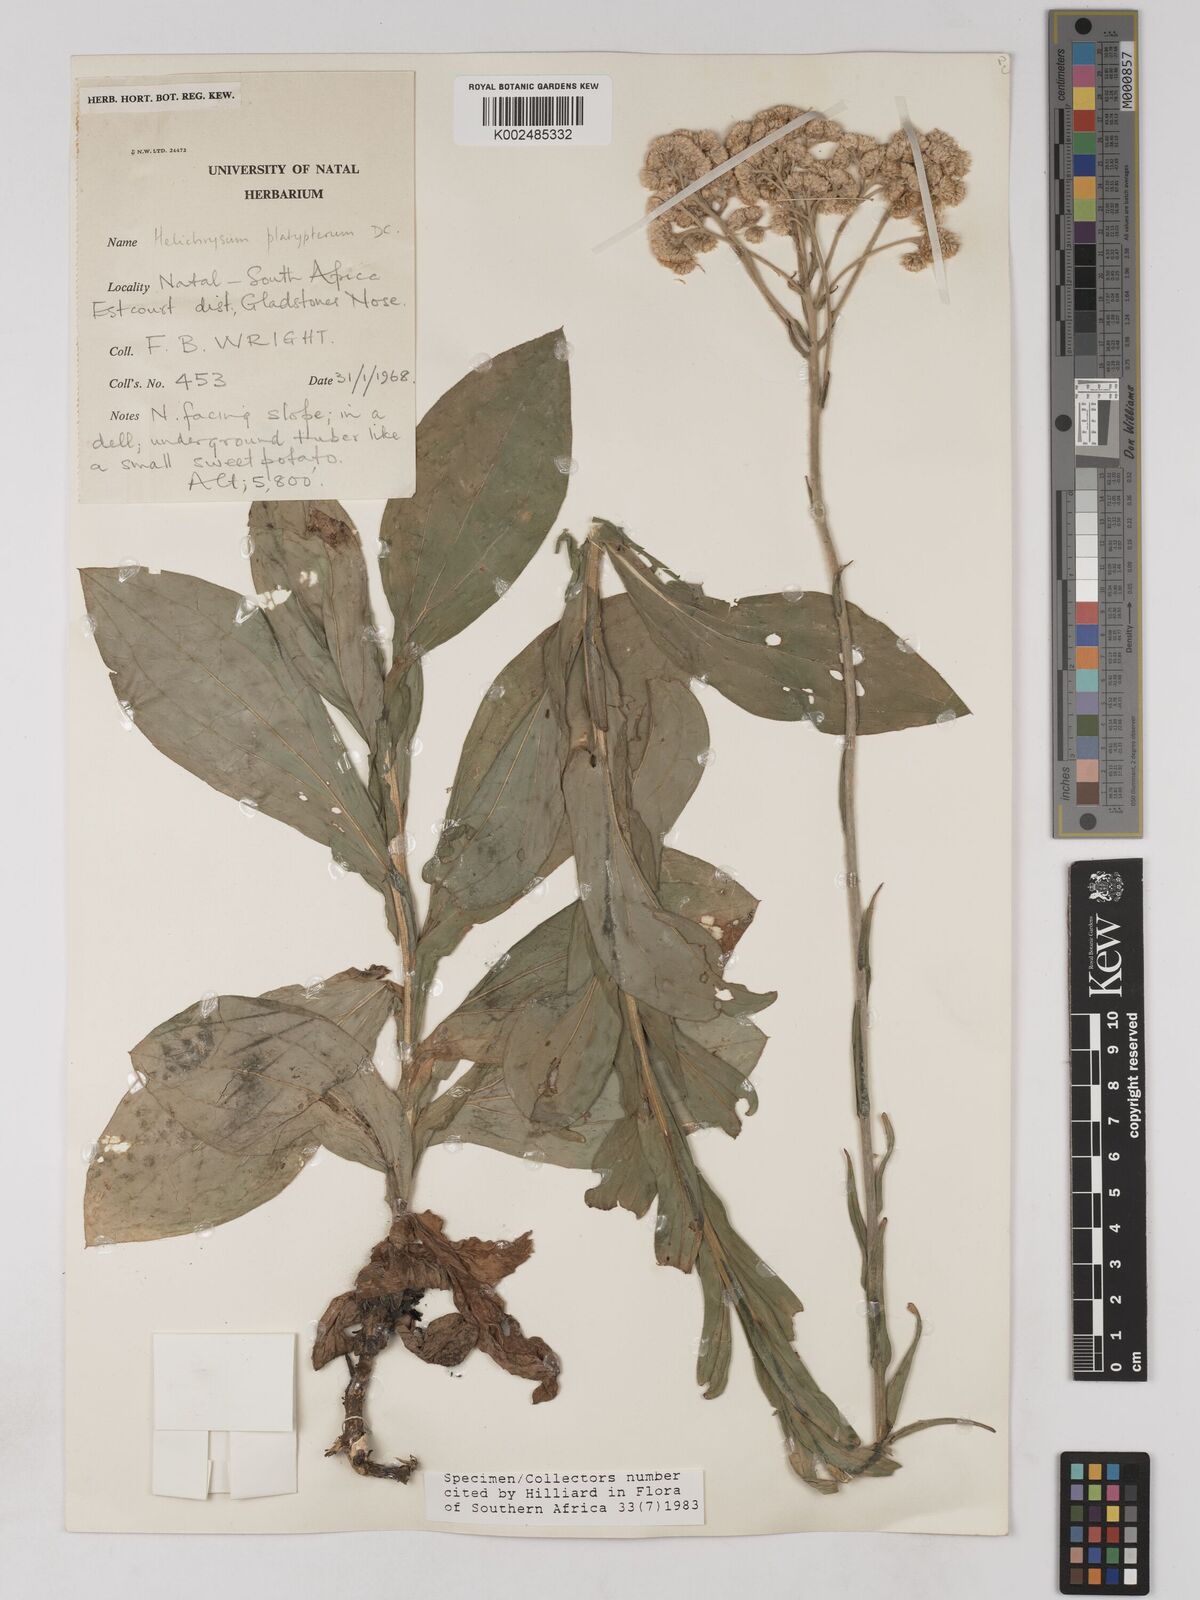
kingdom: Plantae
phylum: Tracheophyta
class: Magnoliopsida
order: Asterales
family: Asteraceae
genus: Helichrysum
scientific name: Helichrysum platypterum
